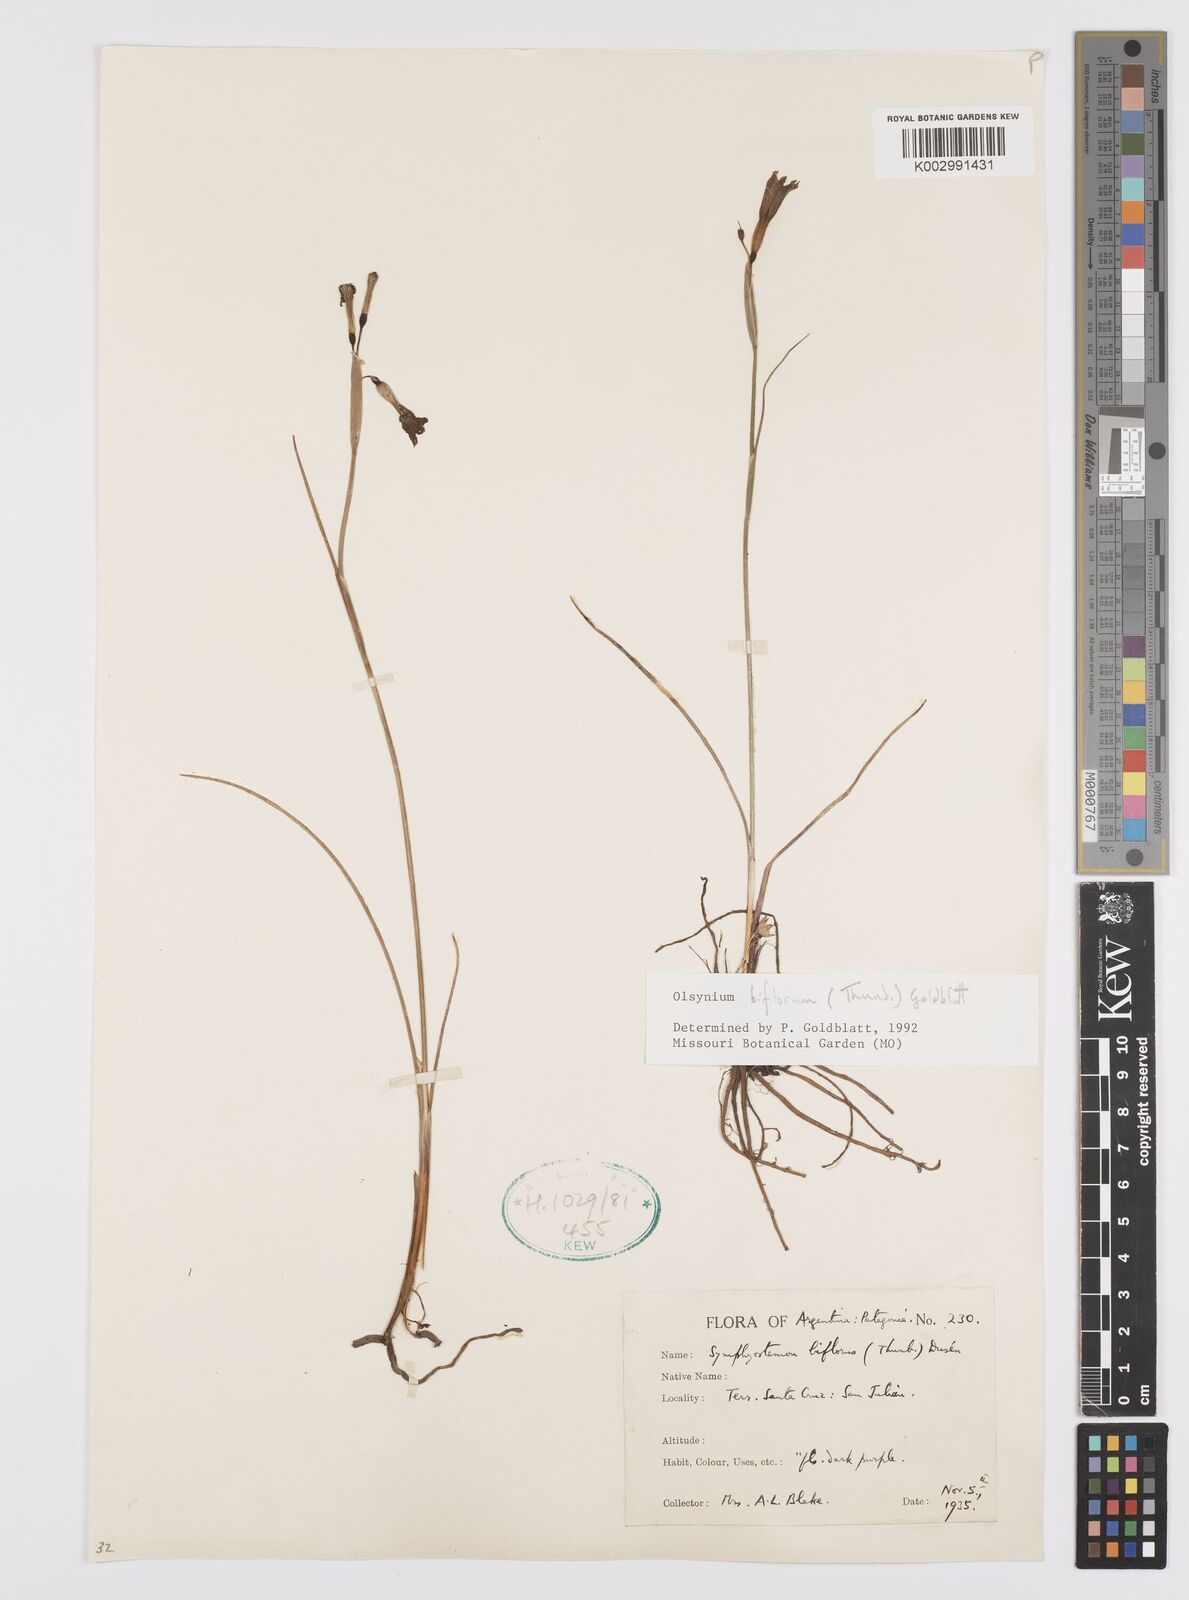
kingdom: Plantae
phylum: Tracheophyta
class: Liliopsida
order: Asparagales
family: Iridaceae
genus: Olsynium
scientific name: Olsynium biflorum
